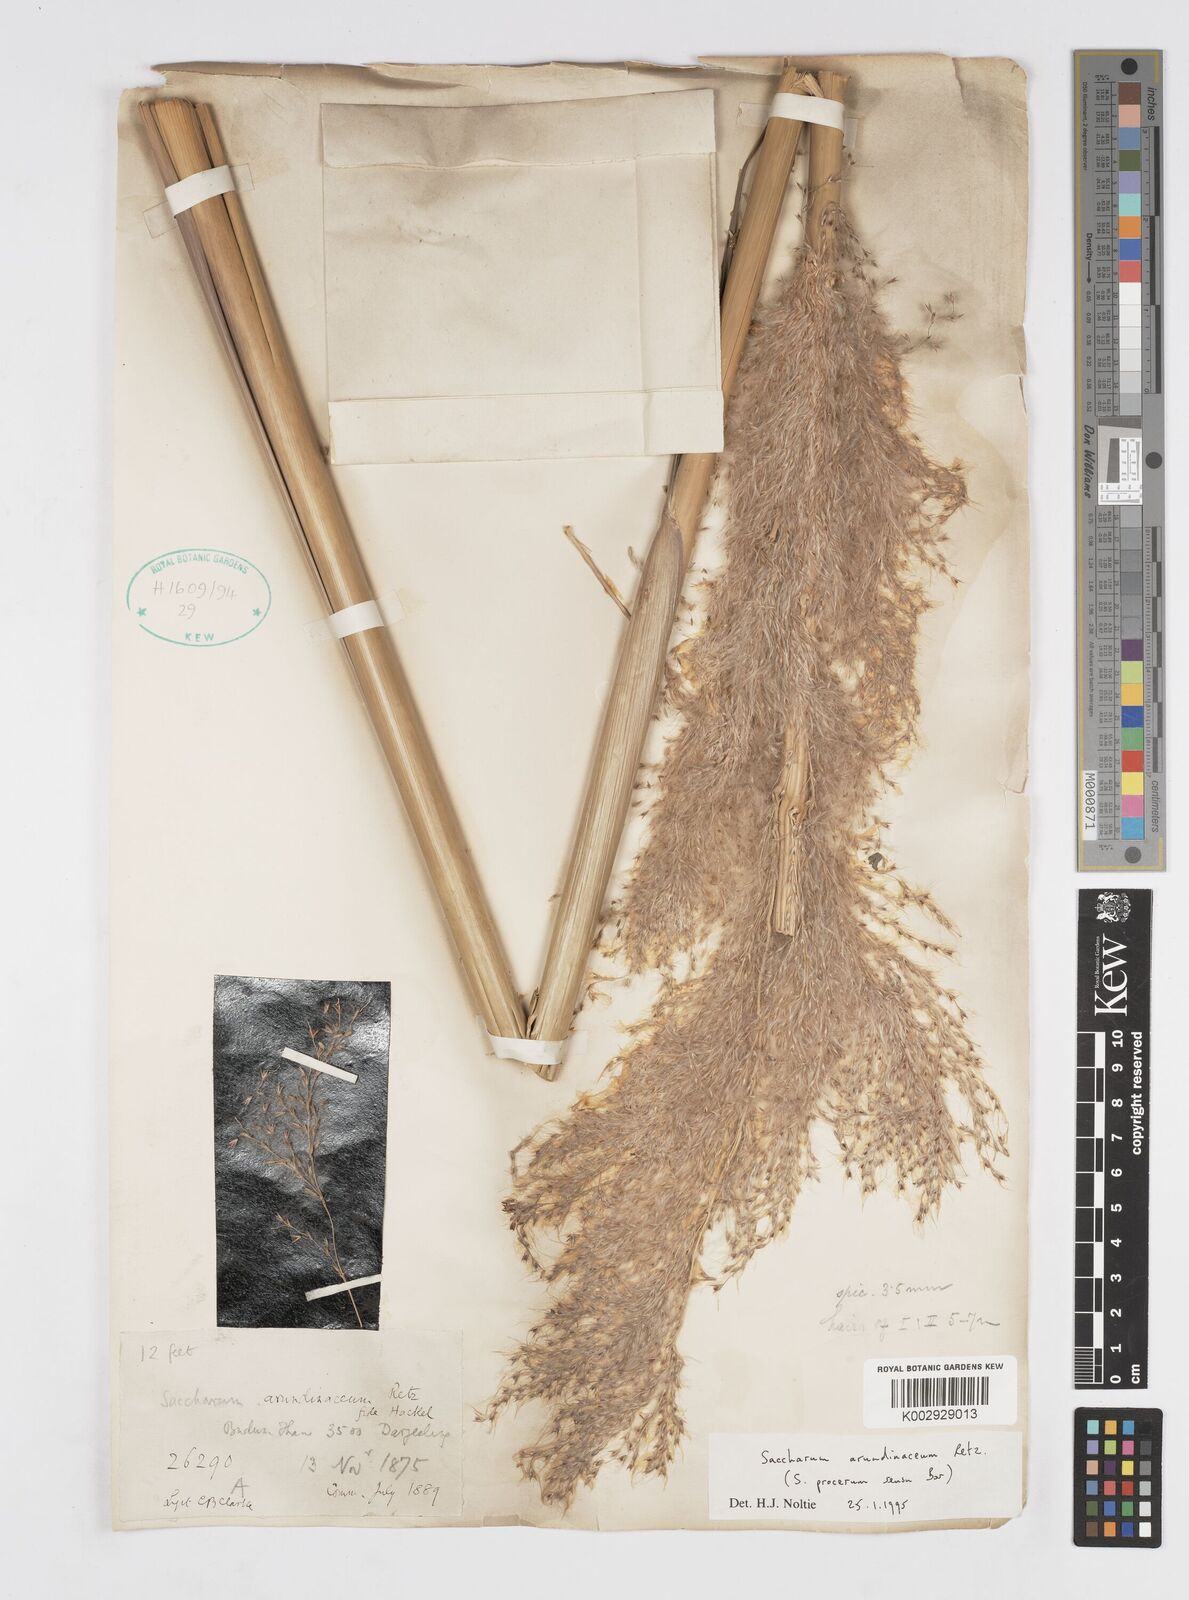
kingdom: Plantae
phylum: Tracheophyta
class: Liliopsida
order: Poales
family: Poaceae
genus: Tripidium
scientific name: Tripidium arundinaceum
